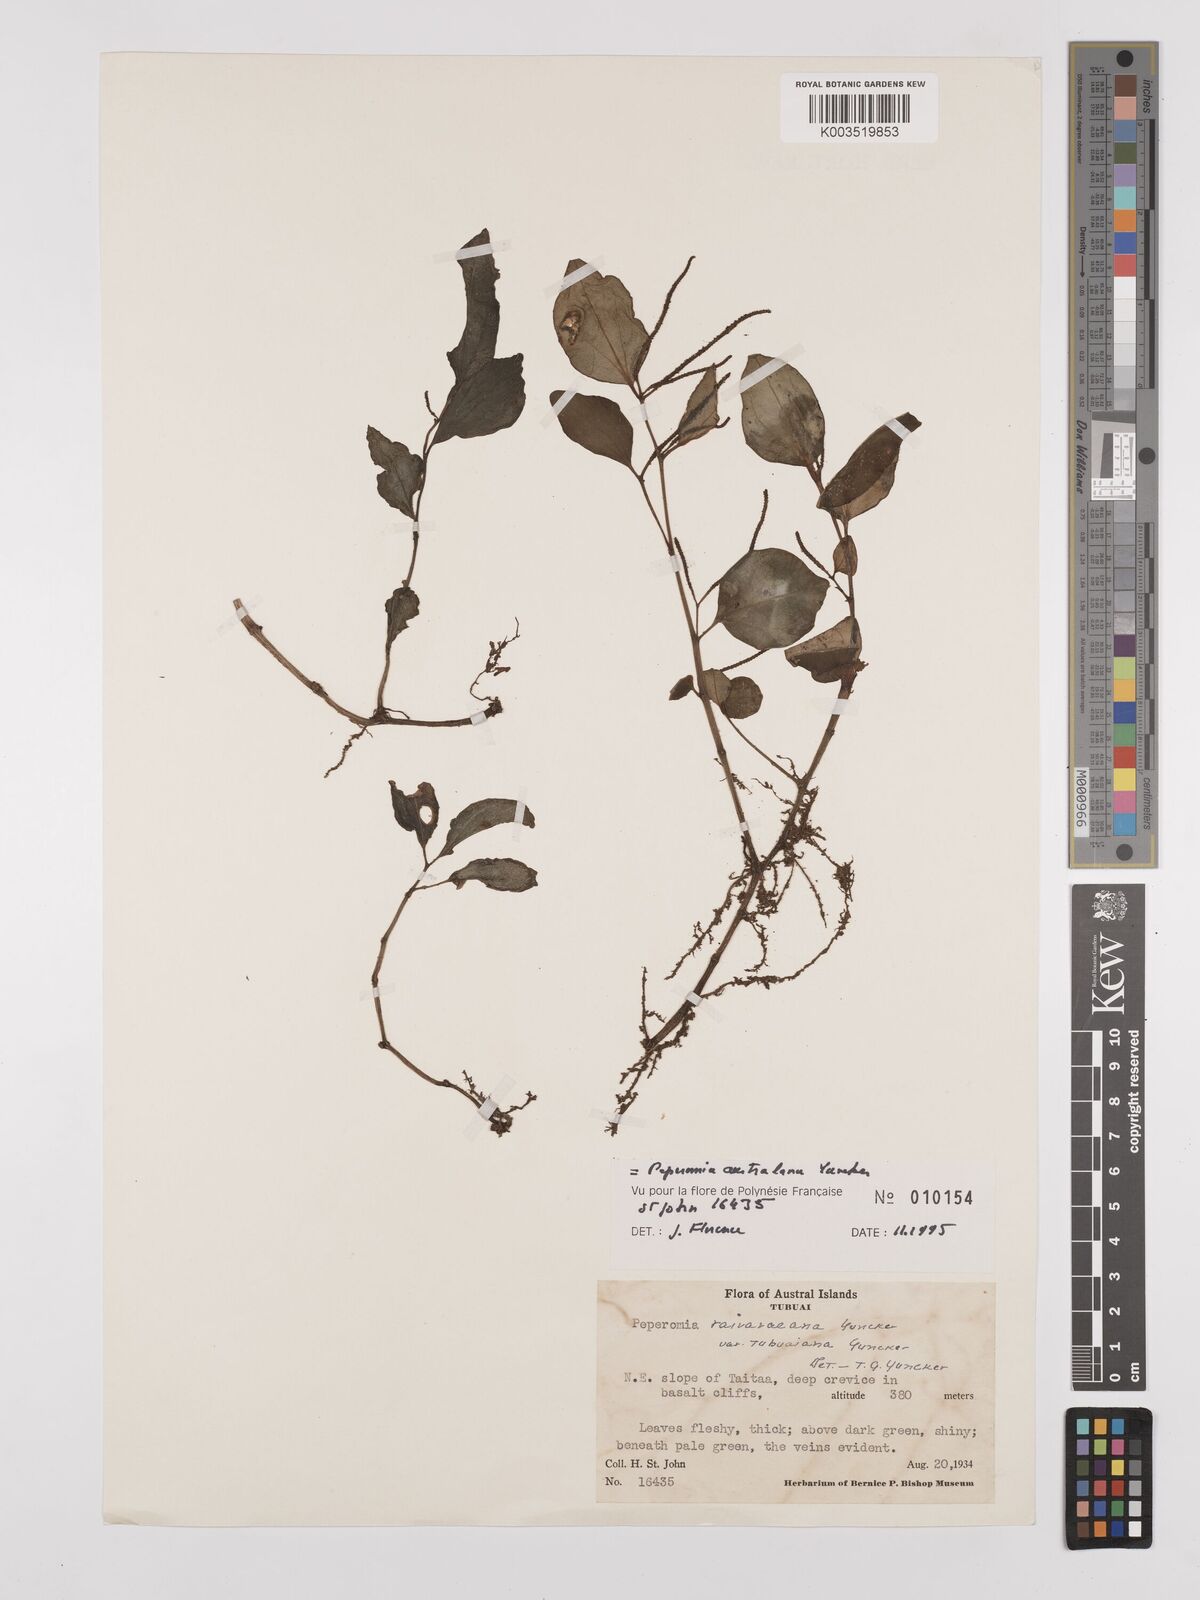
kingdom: Plantae
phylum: Tracheophyta
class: Magnoliopsida
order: Piperales
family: Piperaceae
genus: Peperomia
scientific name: Peperomia australana
